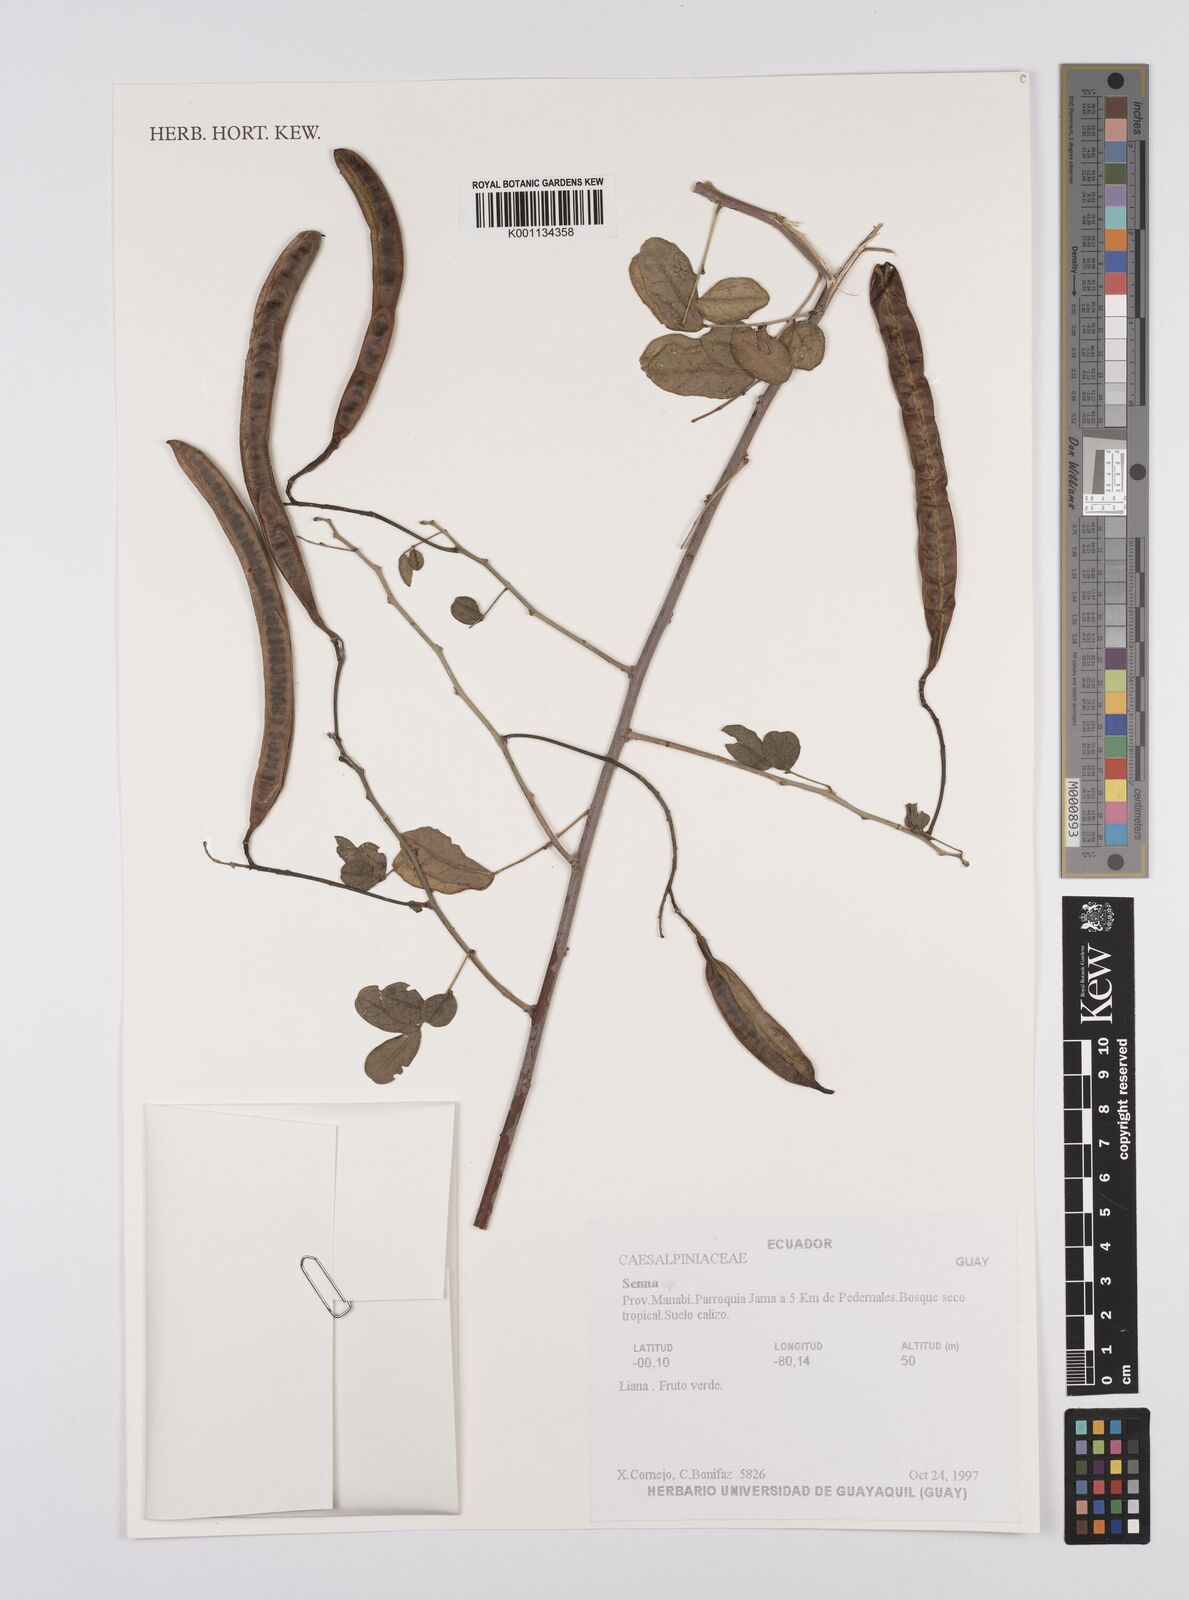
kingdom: Plantae
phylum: Tracheophyta
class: Magnoliopsida
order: Fabales
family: Fabaceae
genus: Senna
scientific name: Senna
